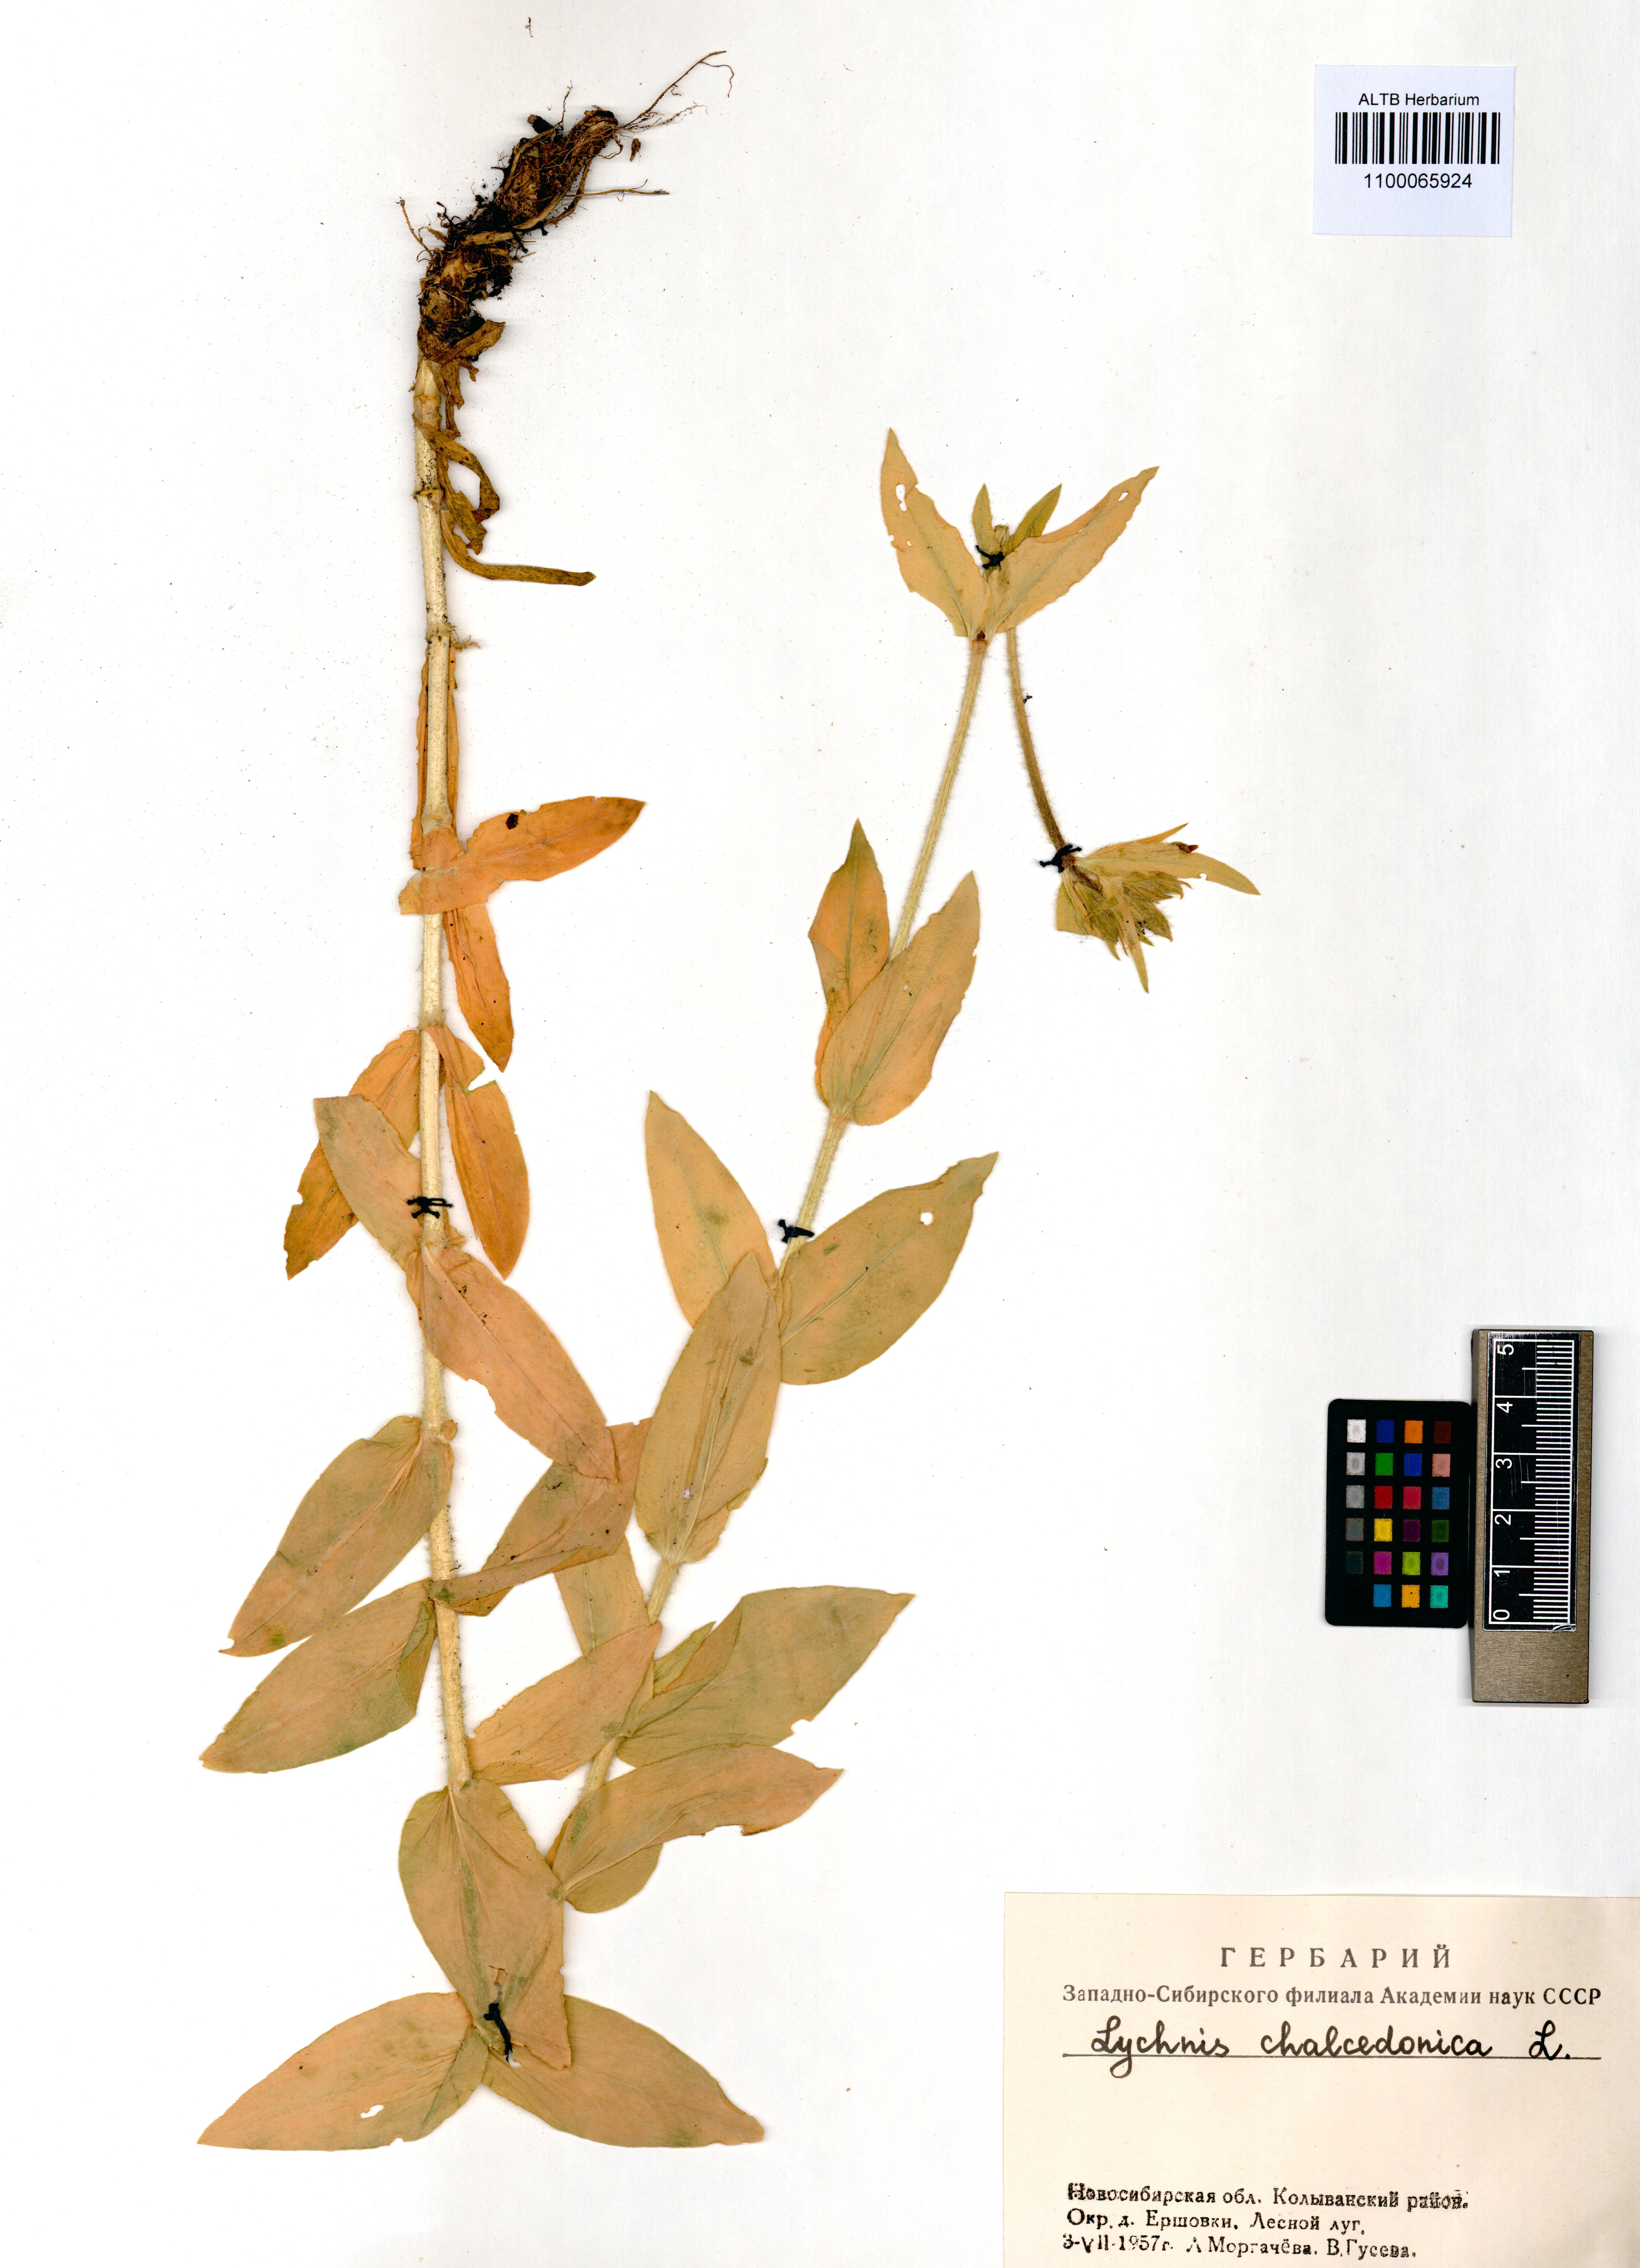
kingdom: Plantae
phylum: Tracheophyta
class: Magnoliopsida
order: Caryophyllales
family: Caryophyllaceae
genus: Silene
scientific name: Silene chalcedonica
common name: Maltese-cross
